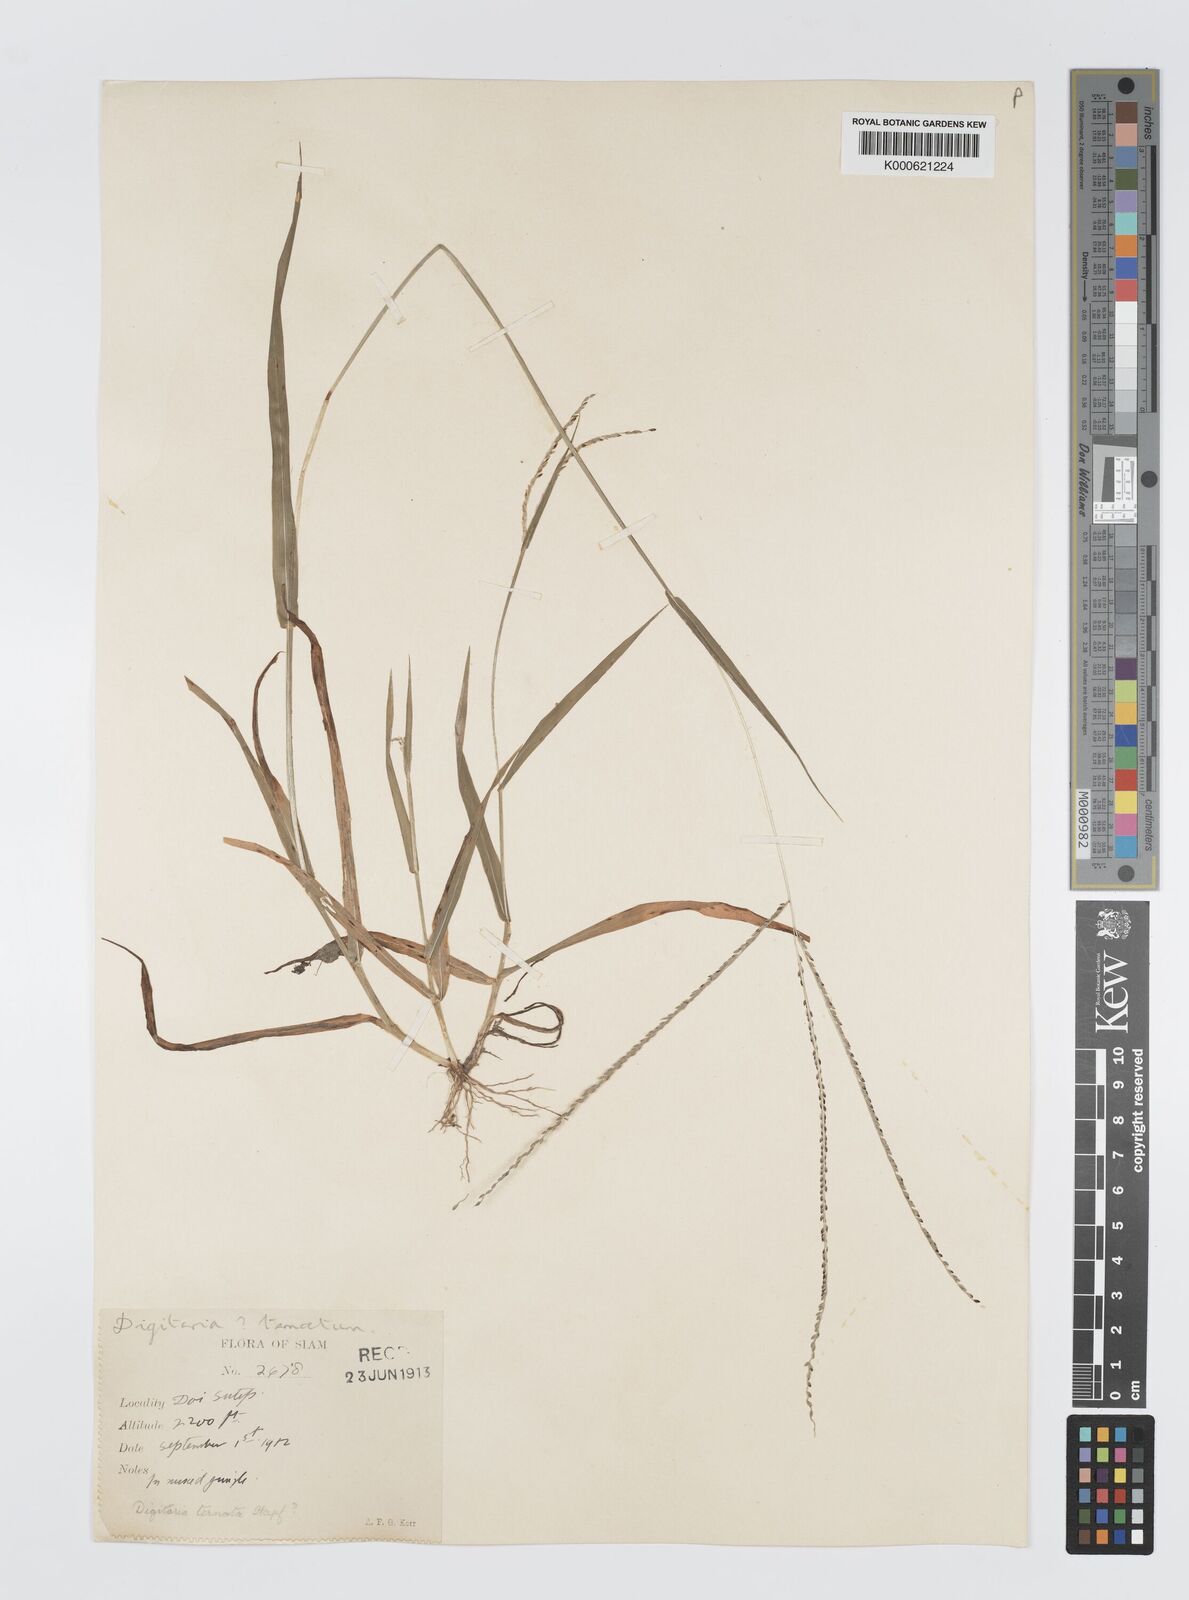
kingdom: Plantae
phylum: Tracheophyta
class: Liliopsida
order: Poales
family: Poaceae
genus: Digitaria
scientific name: Digitaria ternata
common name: Blackseed crabgrass
